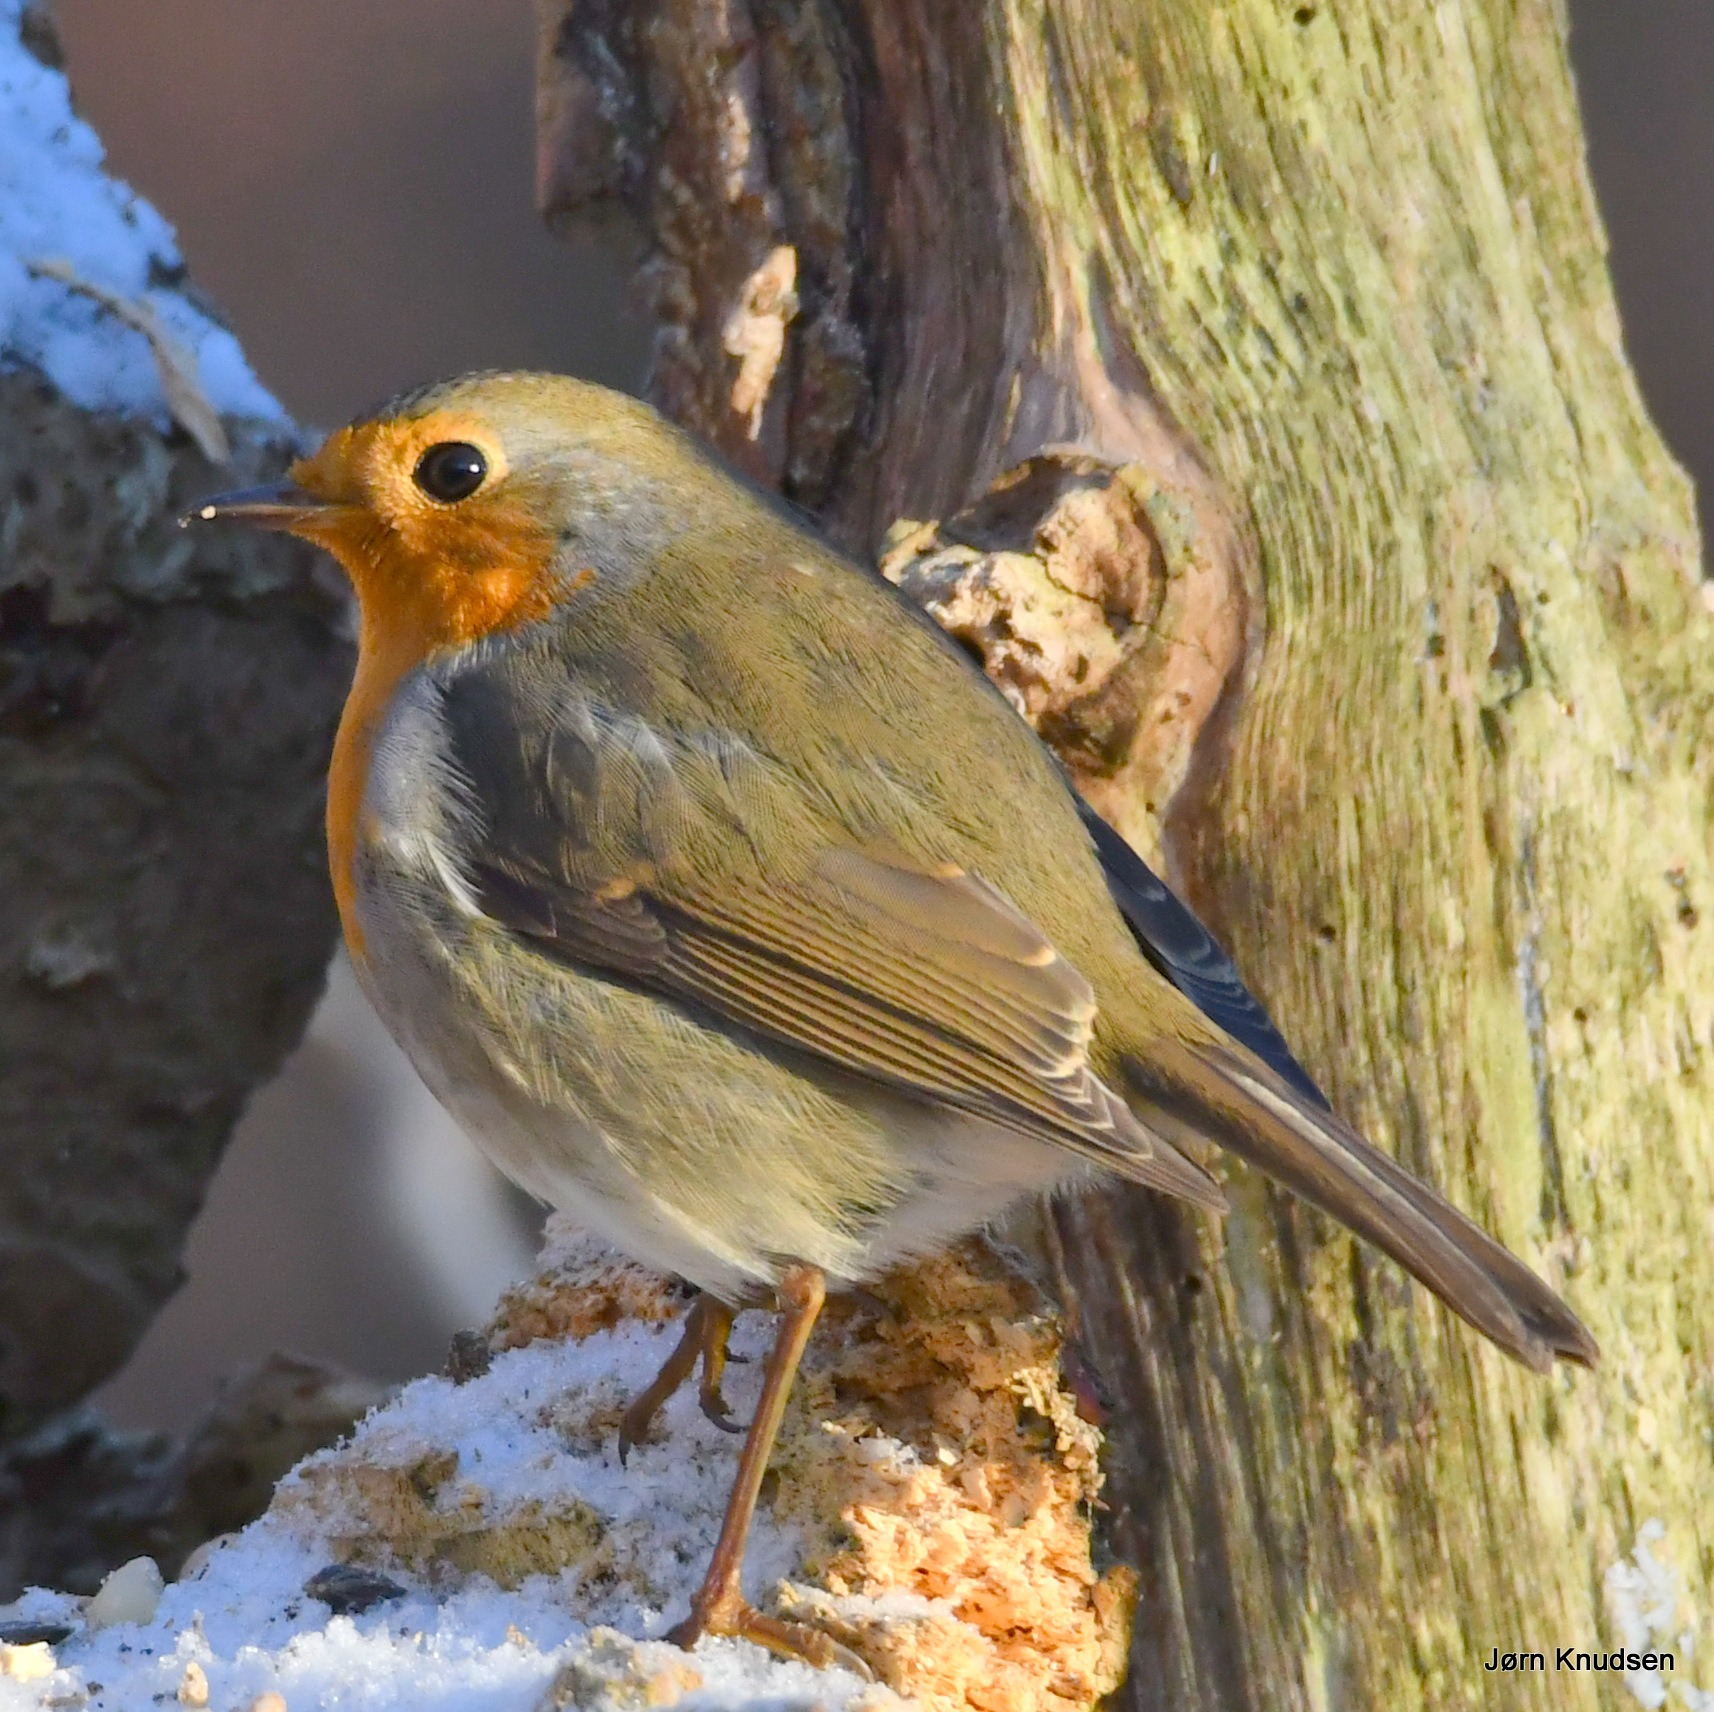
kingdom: Animalia
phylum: Chordata
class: Aves
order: Passeriformes
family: Muscicapidae
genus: Erithacus
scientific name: Erithacus rubecula
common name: Rødhals/rødkælk
